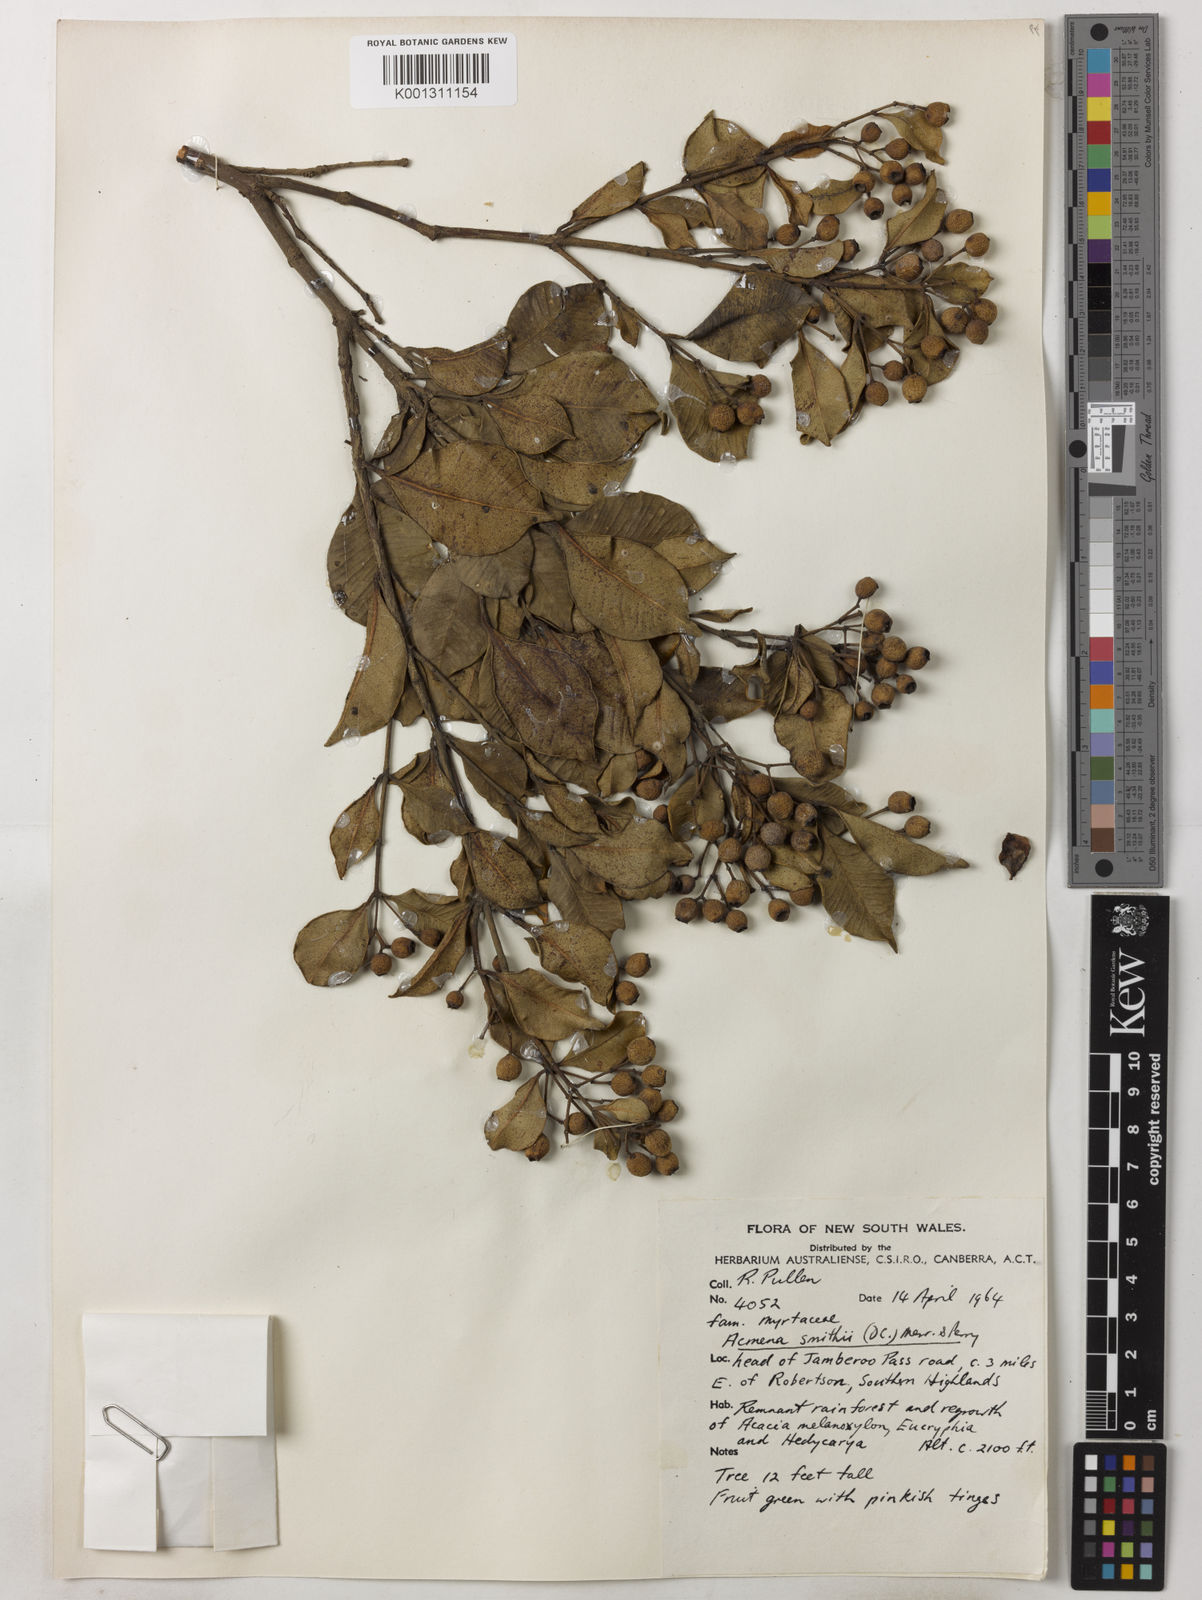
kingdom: Plantae
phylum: Tracheophyta
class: Magnoliopsida
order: Myrtales
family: Myrtaceae
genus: Syzygium
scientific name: Syzygium smithii
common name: Lilly-pilly
